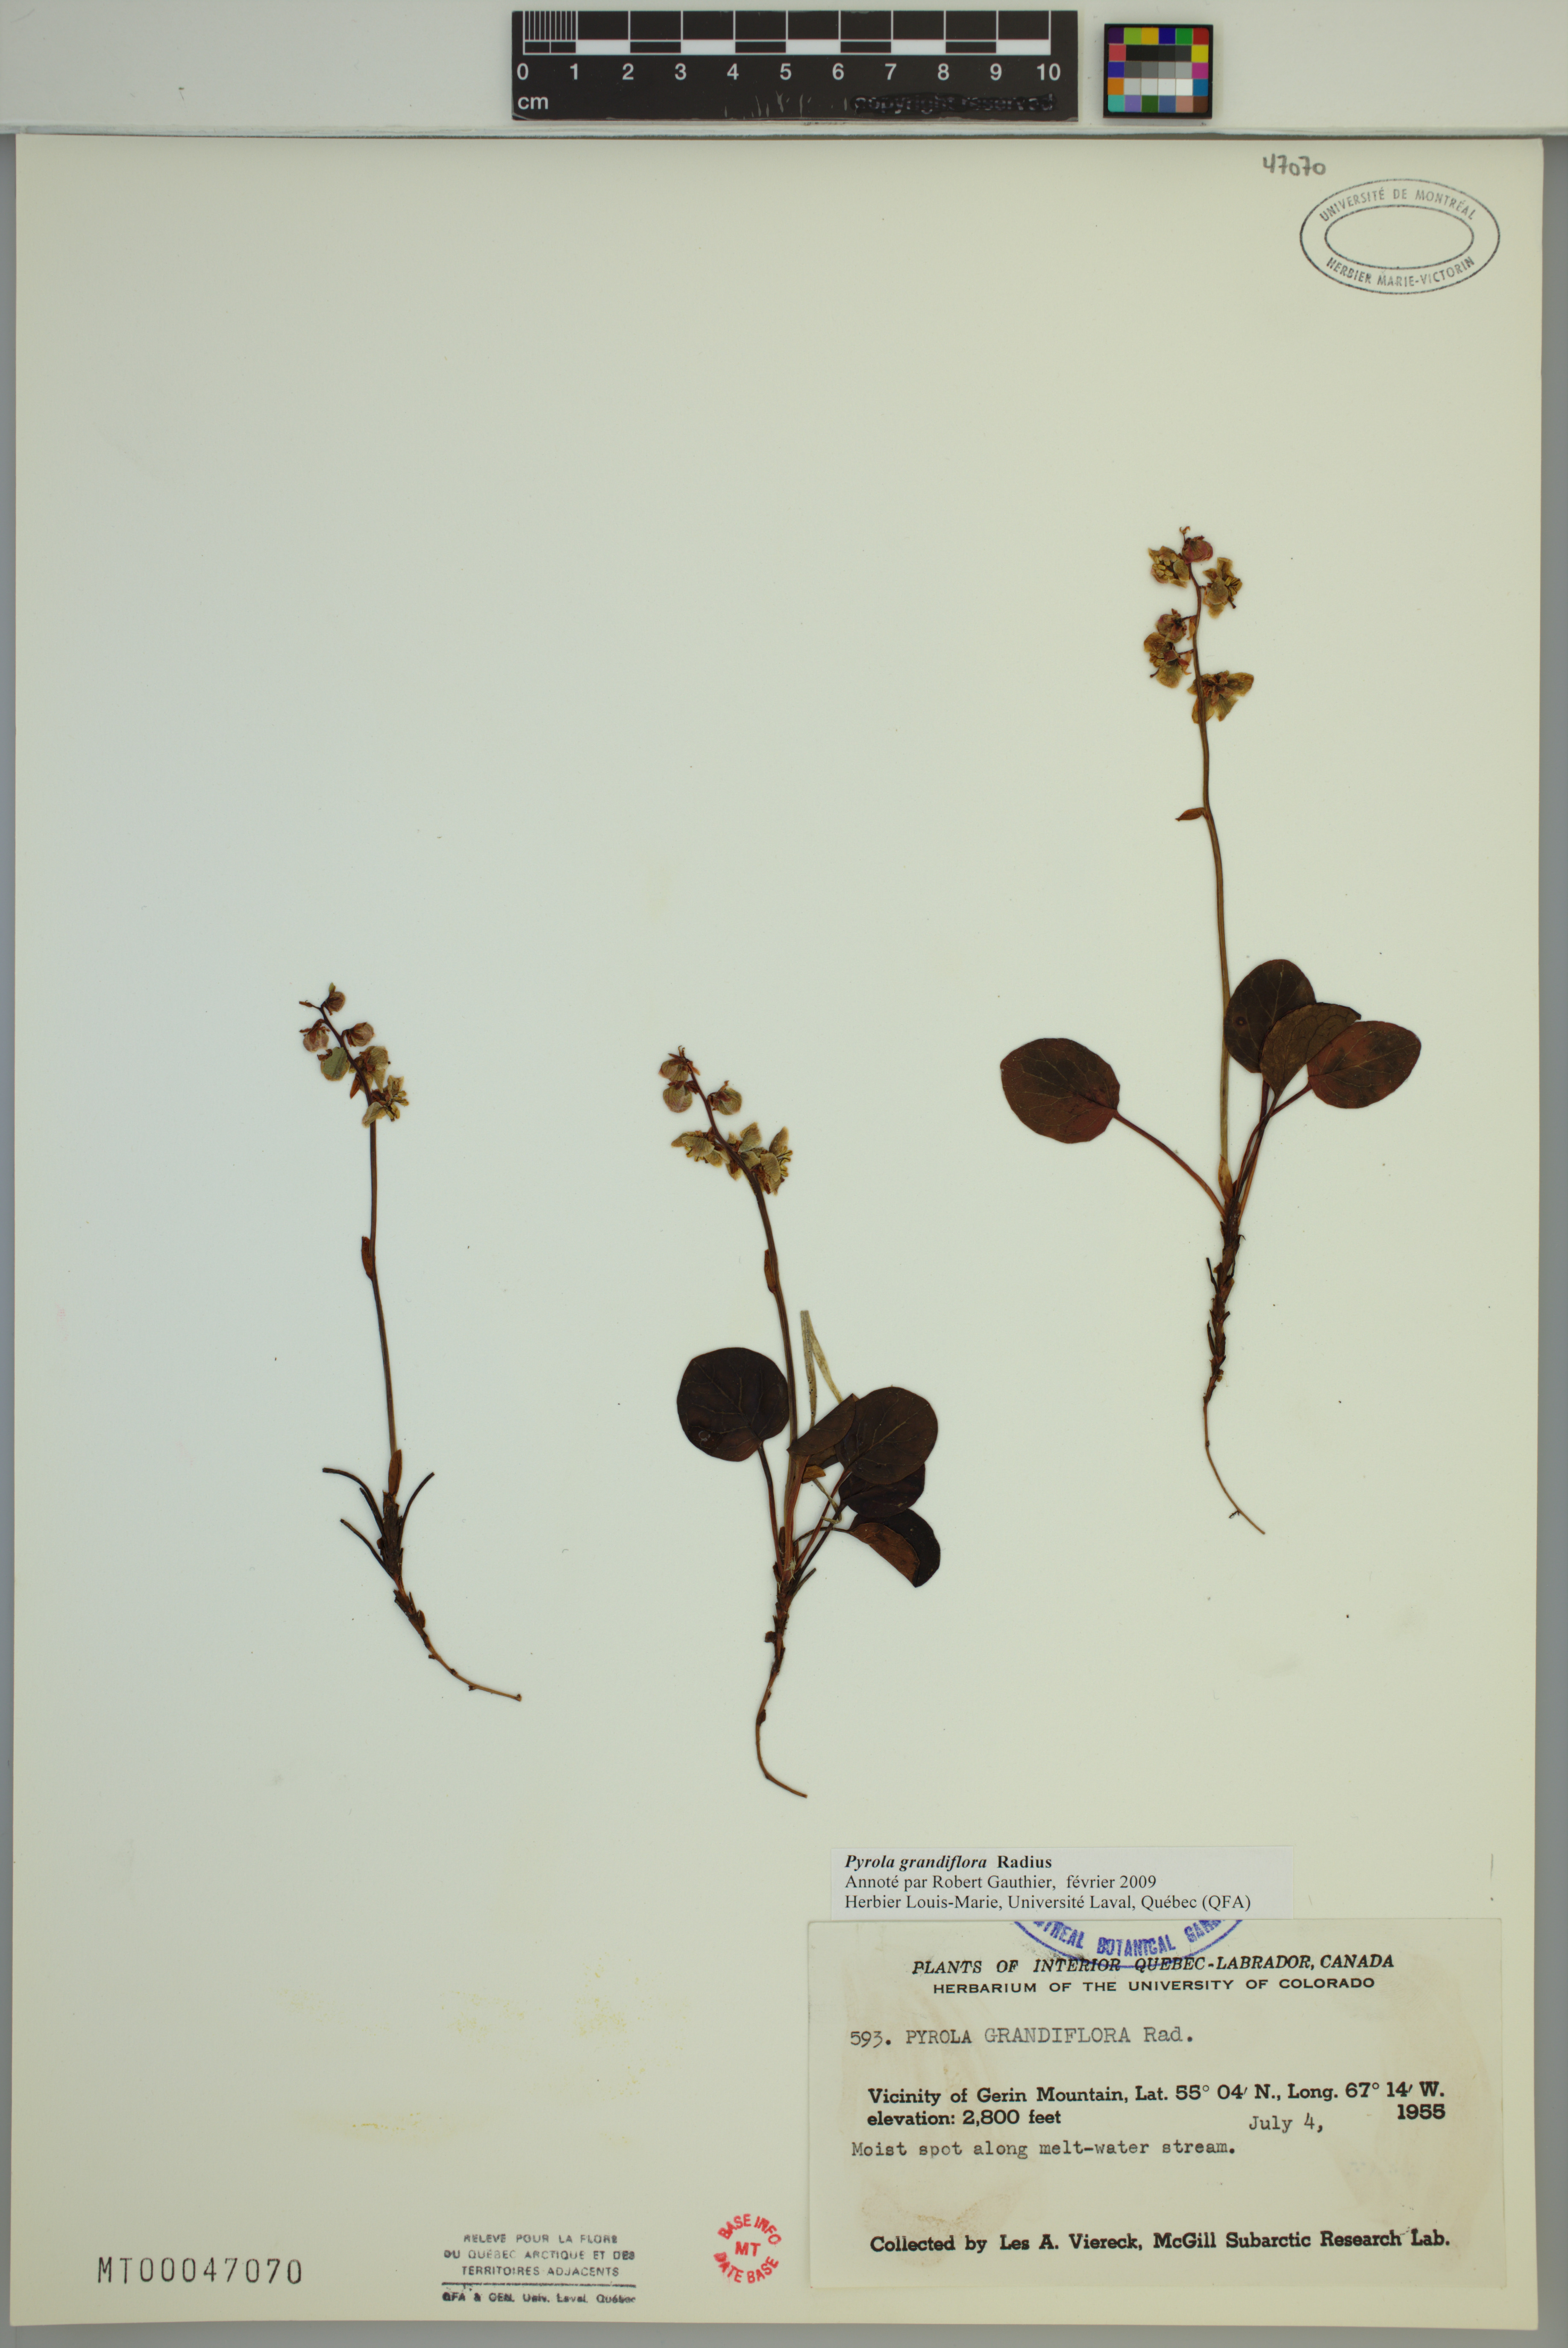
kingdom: Plantae
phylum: Tracheophyta
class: Magnoliopsida
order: Ericales
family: Ericaceae
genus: Pyrola
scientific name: Pyrola grandiflora
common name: Arctic pyrola
